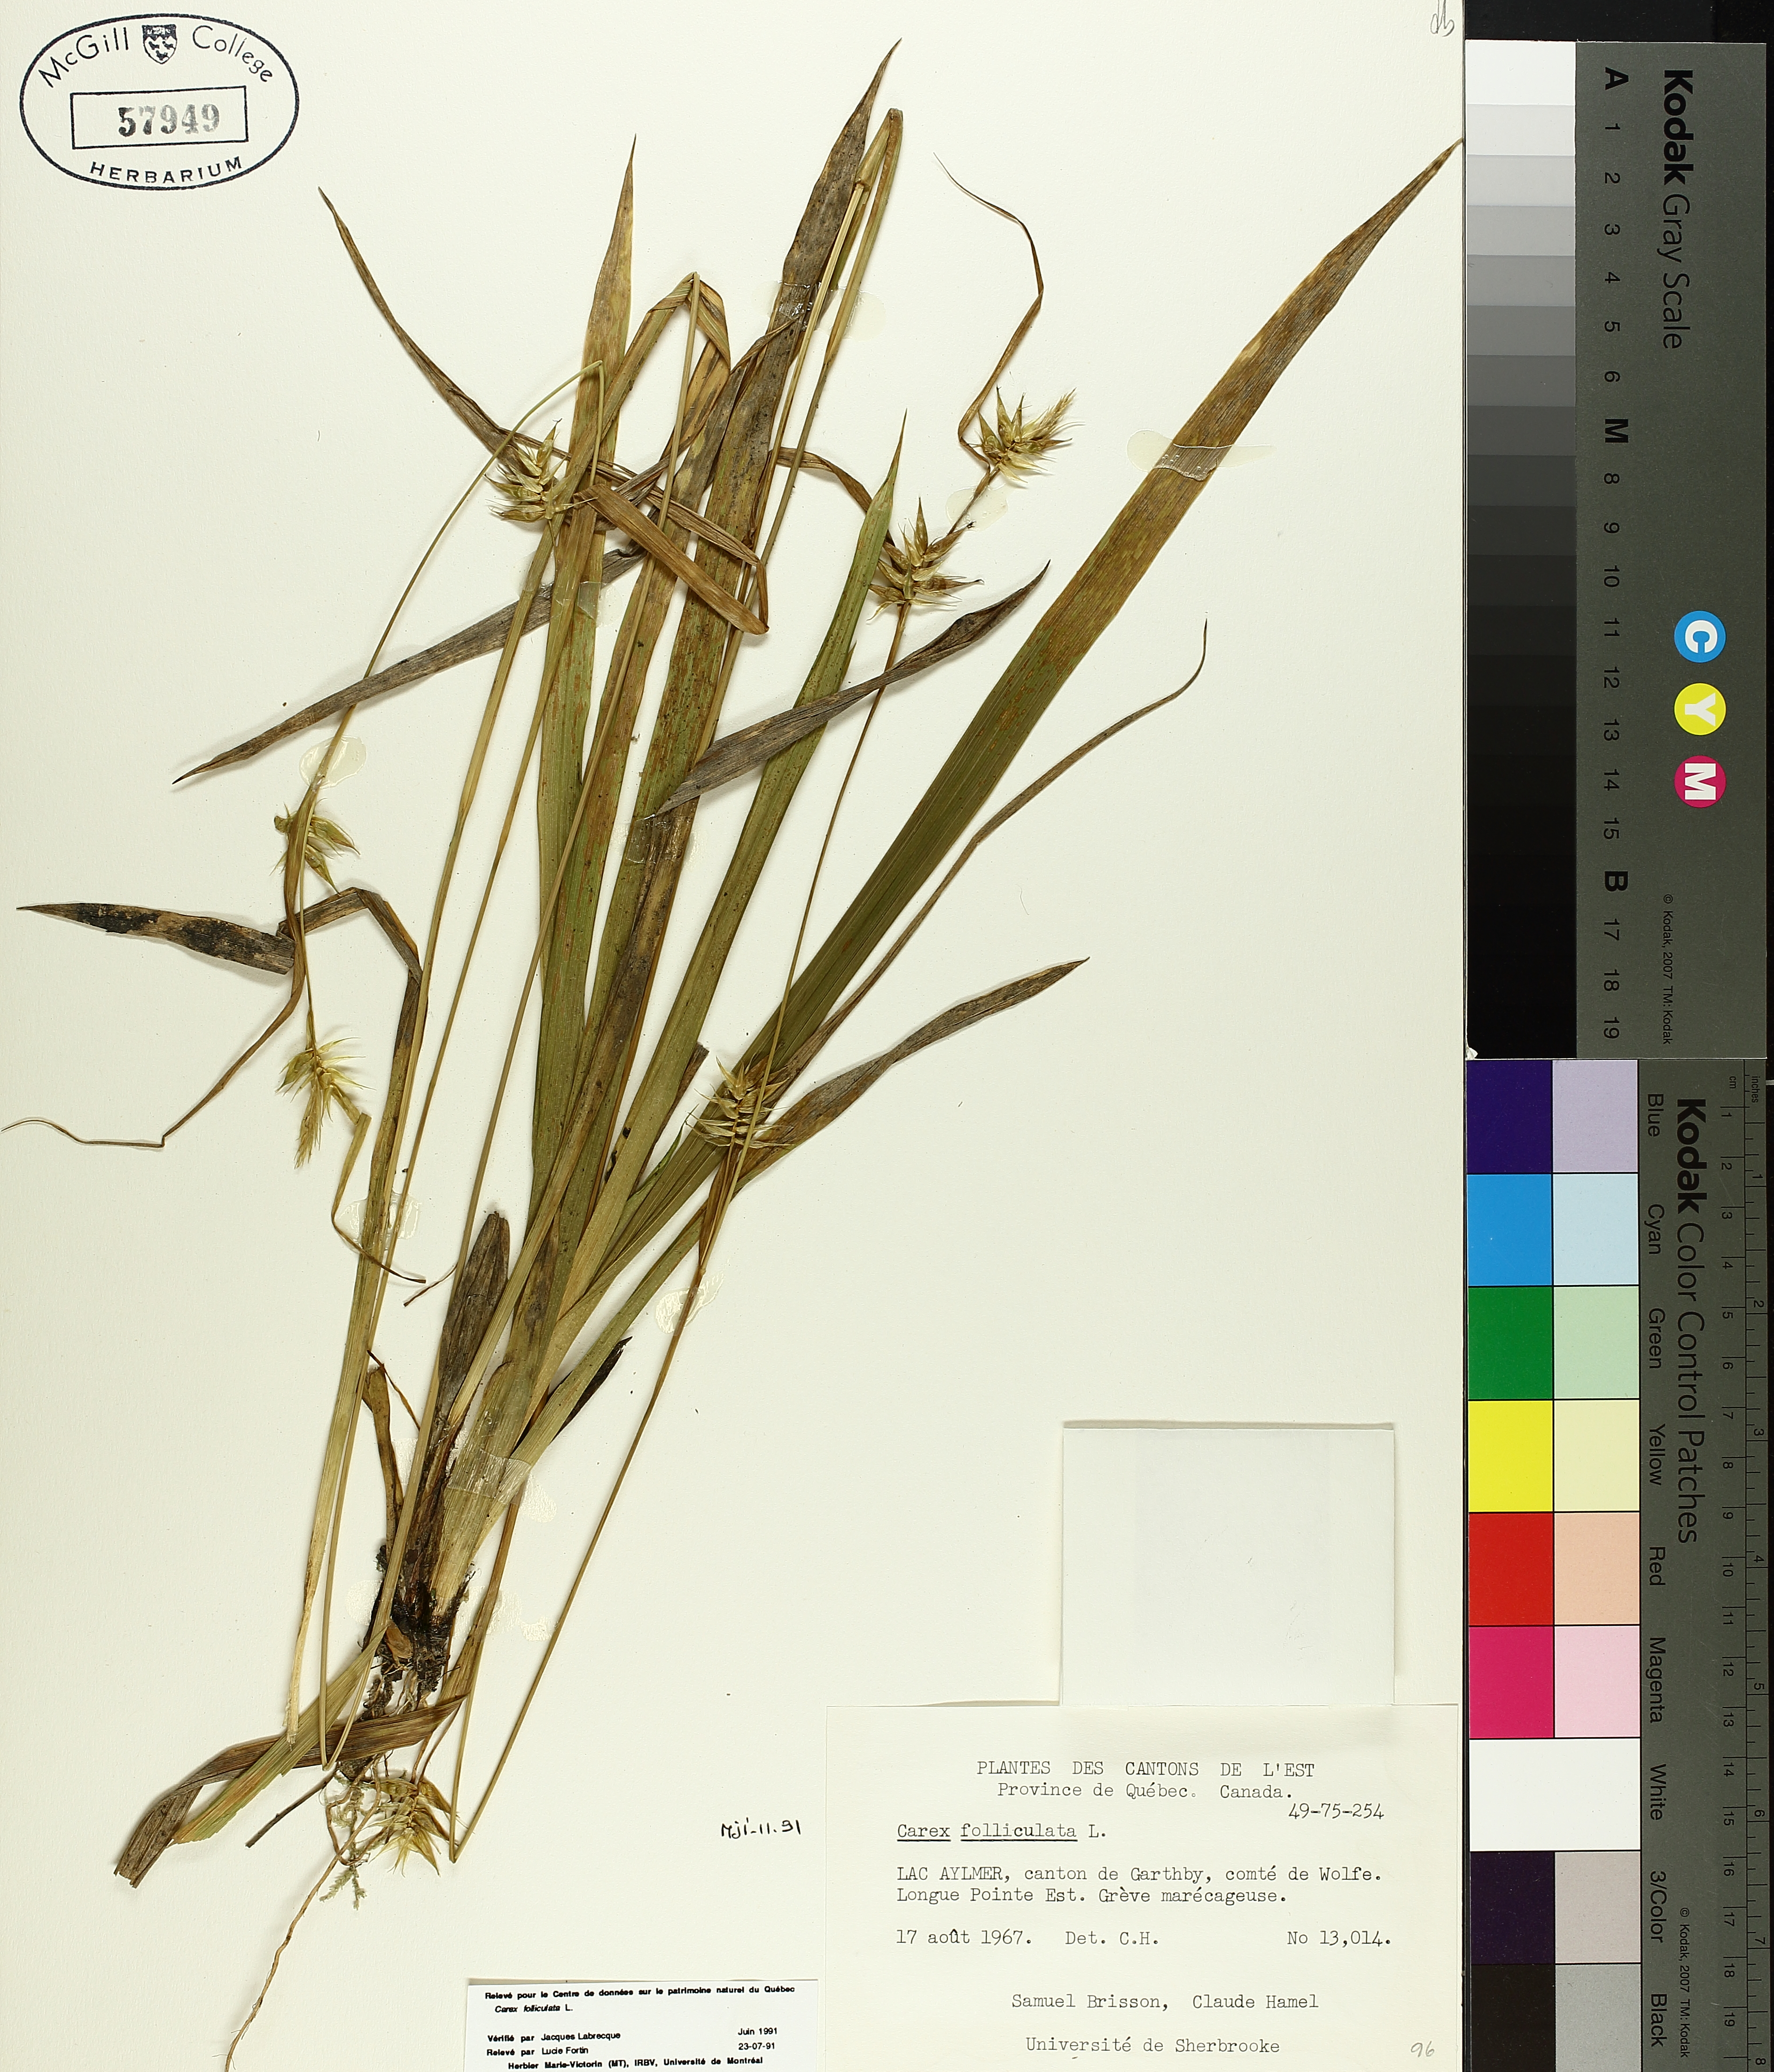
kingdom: Plantae
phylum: Tracheophyta
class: Liliopsida
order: Poales
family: Cyperaceae
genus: Carex
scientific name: Carex folliculata
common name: Northern long sedge
